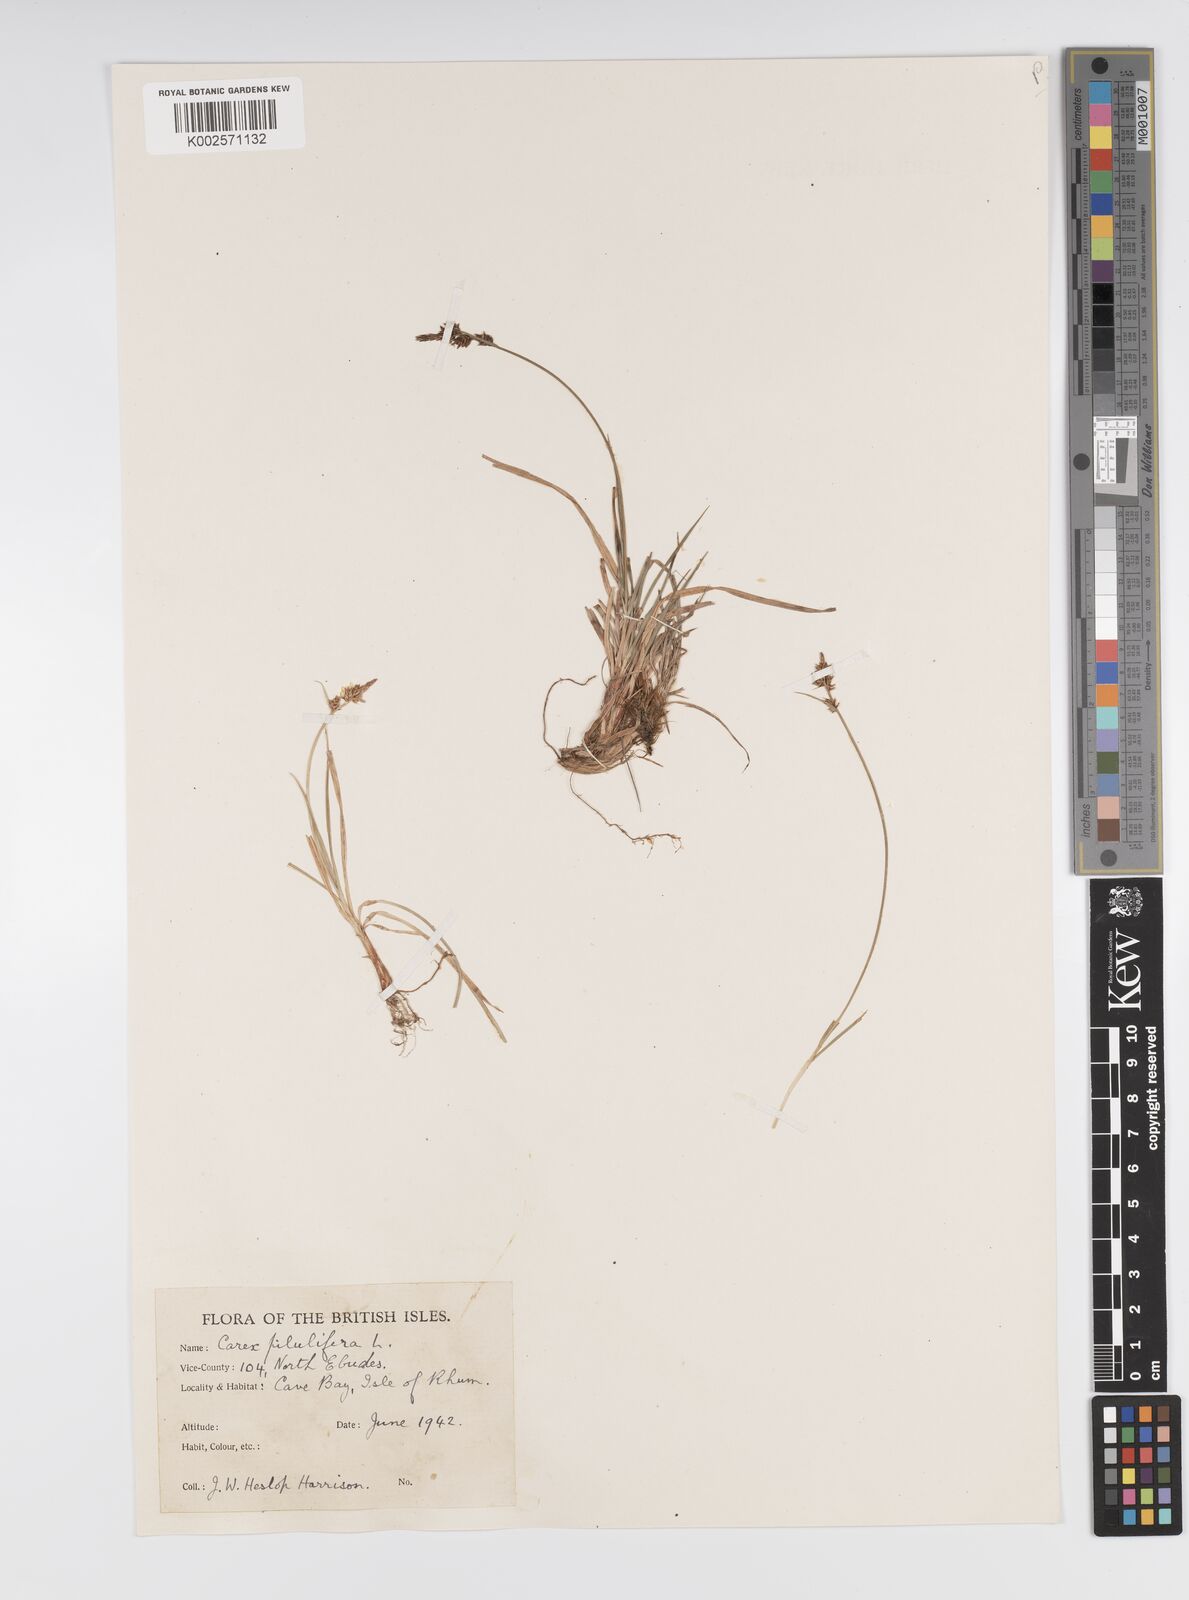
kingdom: Plantae
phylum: Tracheophyta
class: Liliopsida
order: Poales
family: Cyperaceae
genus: Carex
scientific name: Carex pilulifera
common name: Pill sedge
